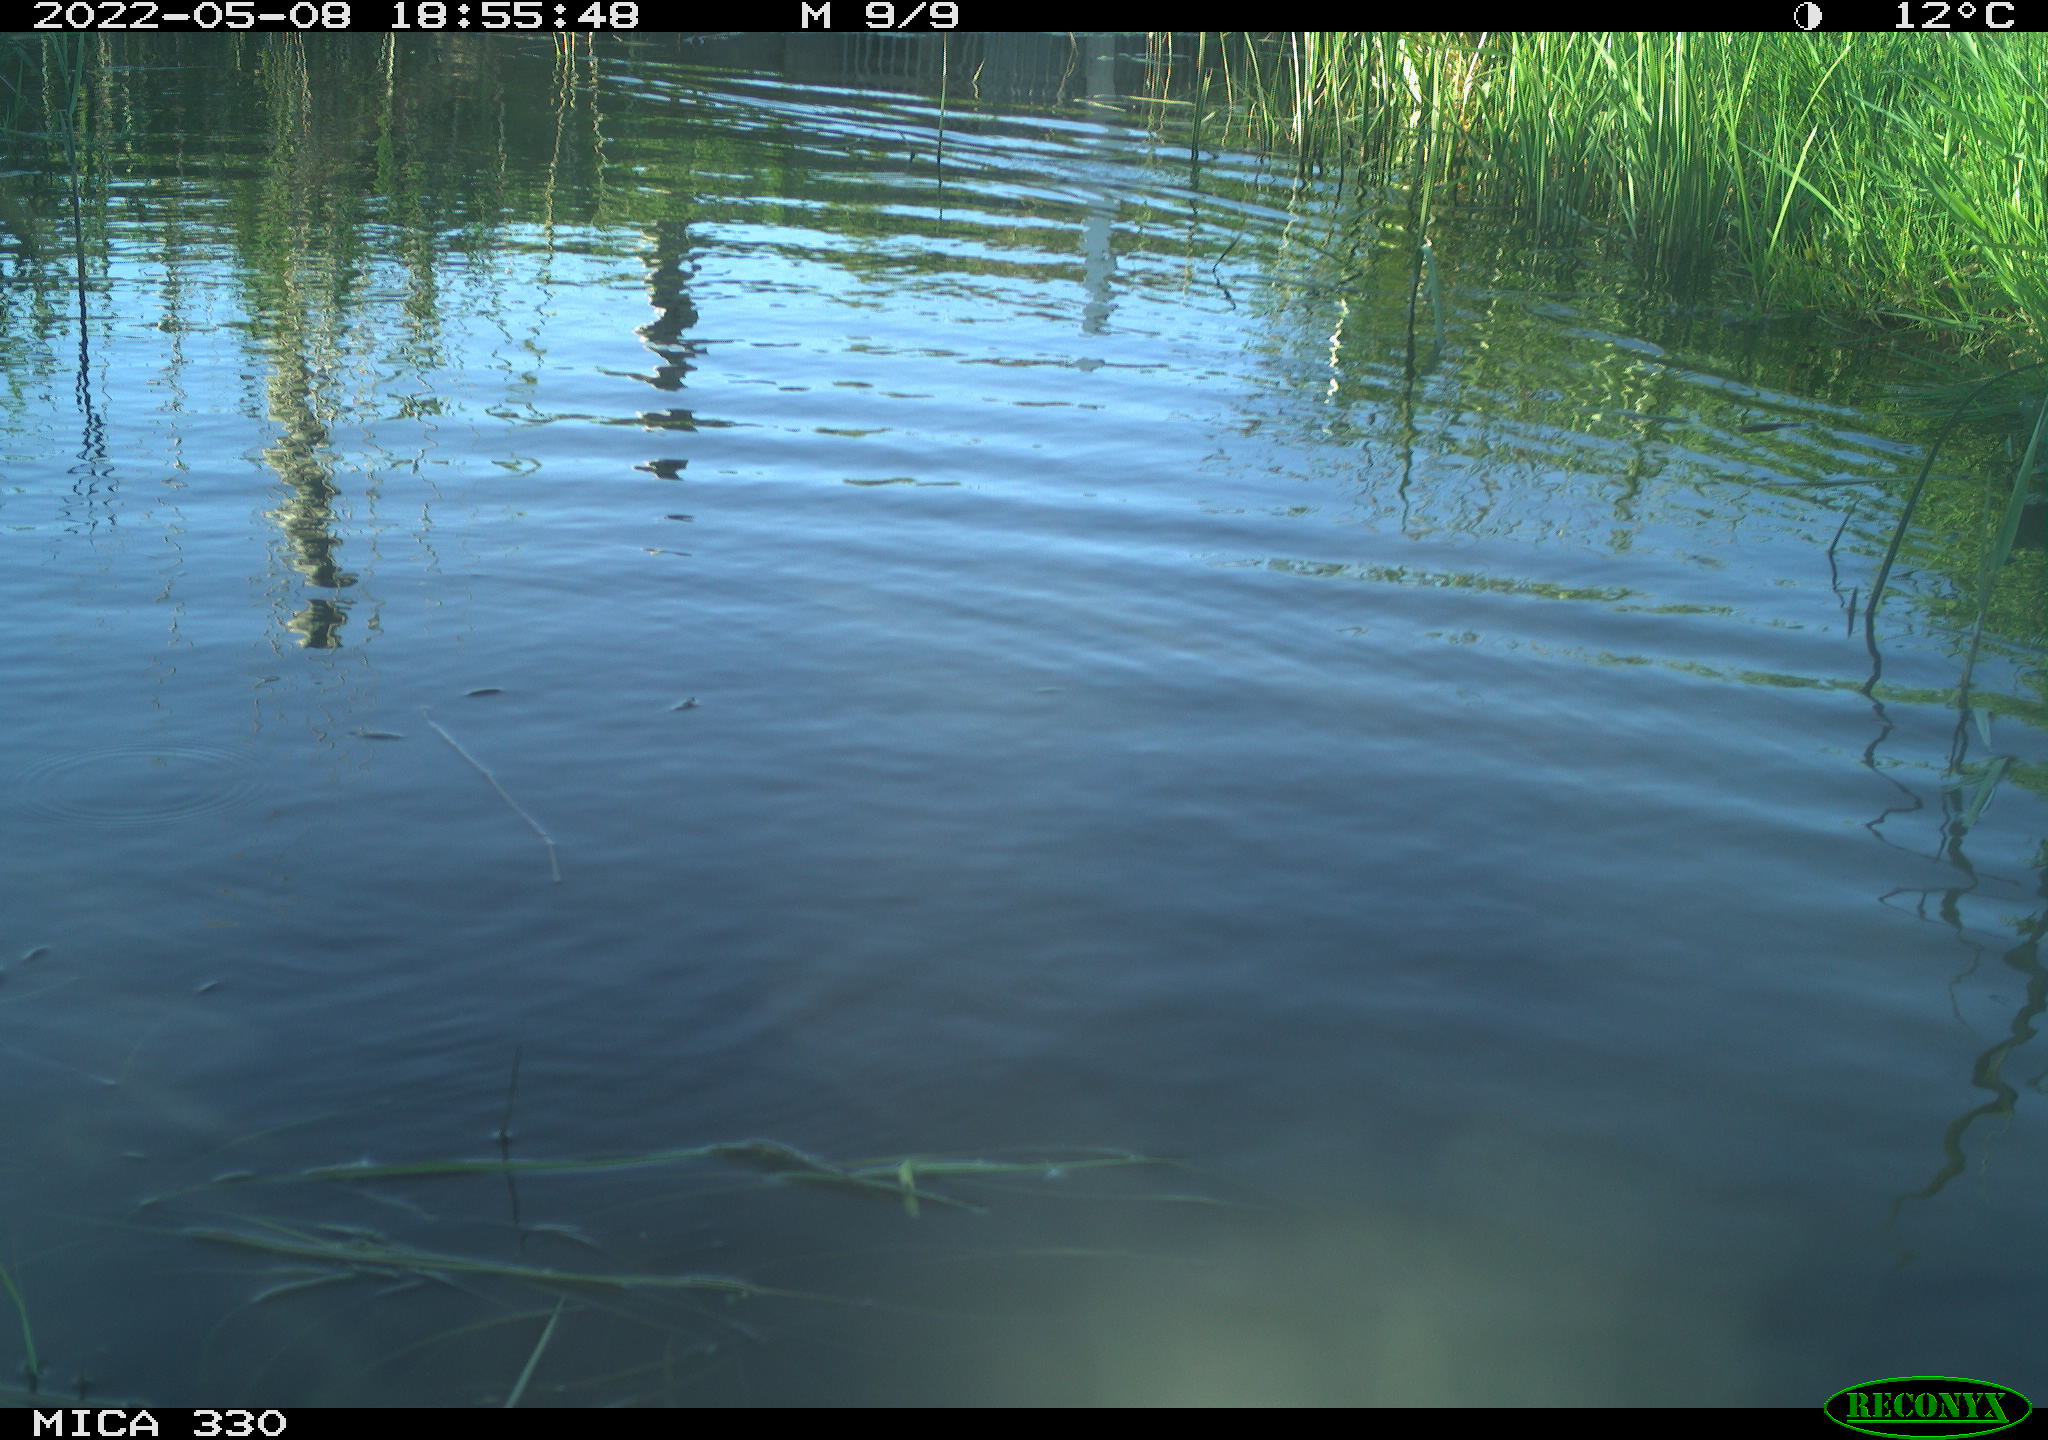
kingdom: Animalia
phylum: Chordata
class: Aves
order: Anseriformes
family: Anatidae
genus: Anas
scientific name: Anas platyrhynchos
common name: Mallard
